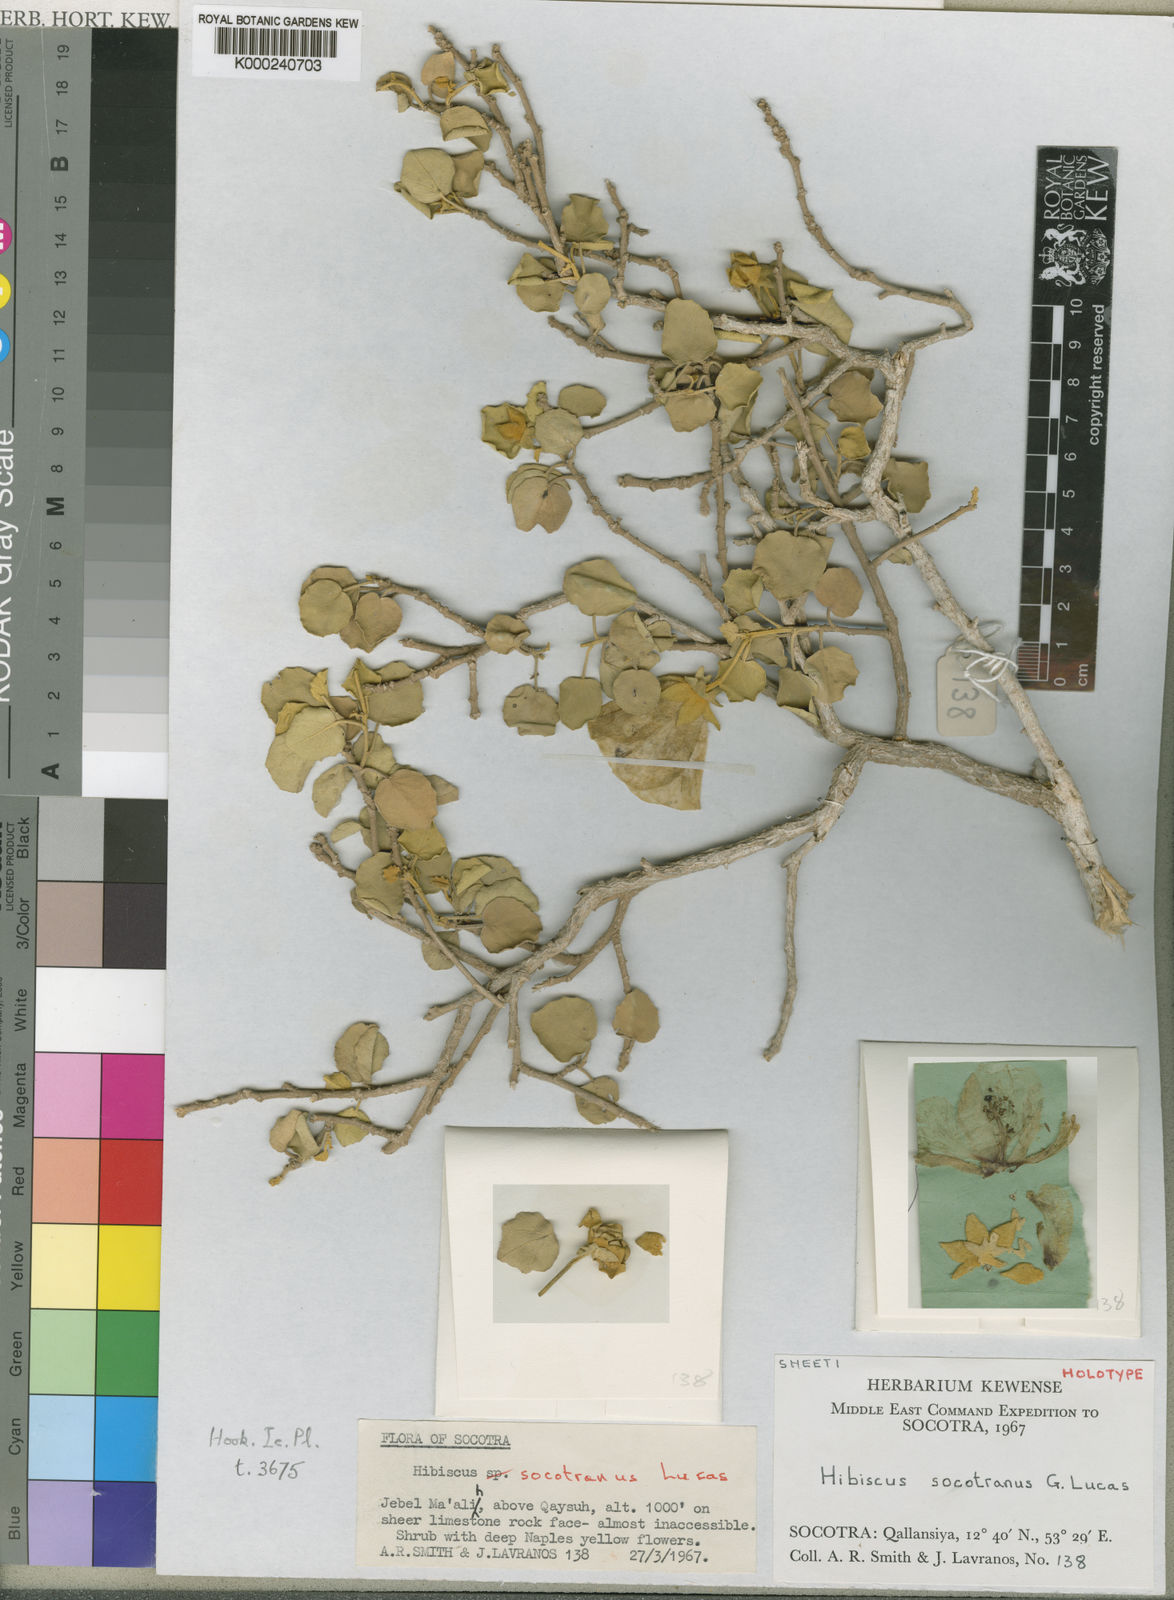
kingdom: Plantae
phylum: Tracheophyta
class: Magnoliopsida
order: Malvales
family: Malvaceae
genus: Hibiscus
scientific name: Hibiscus socotranus
